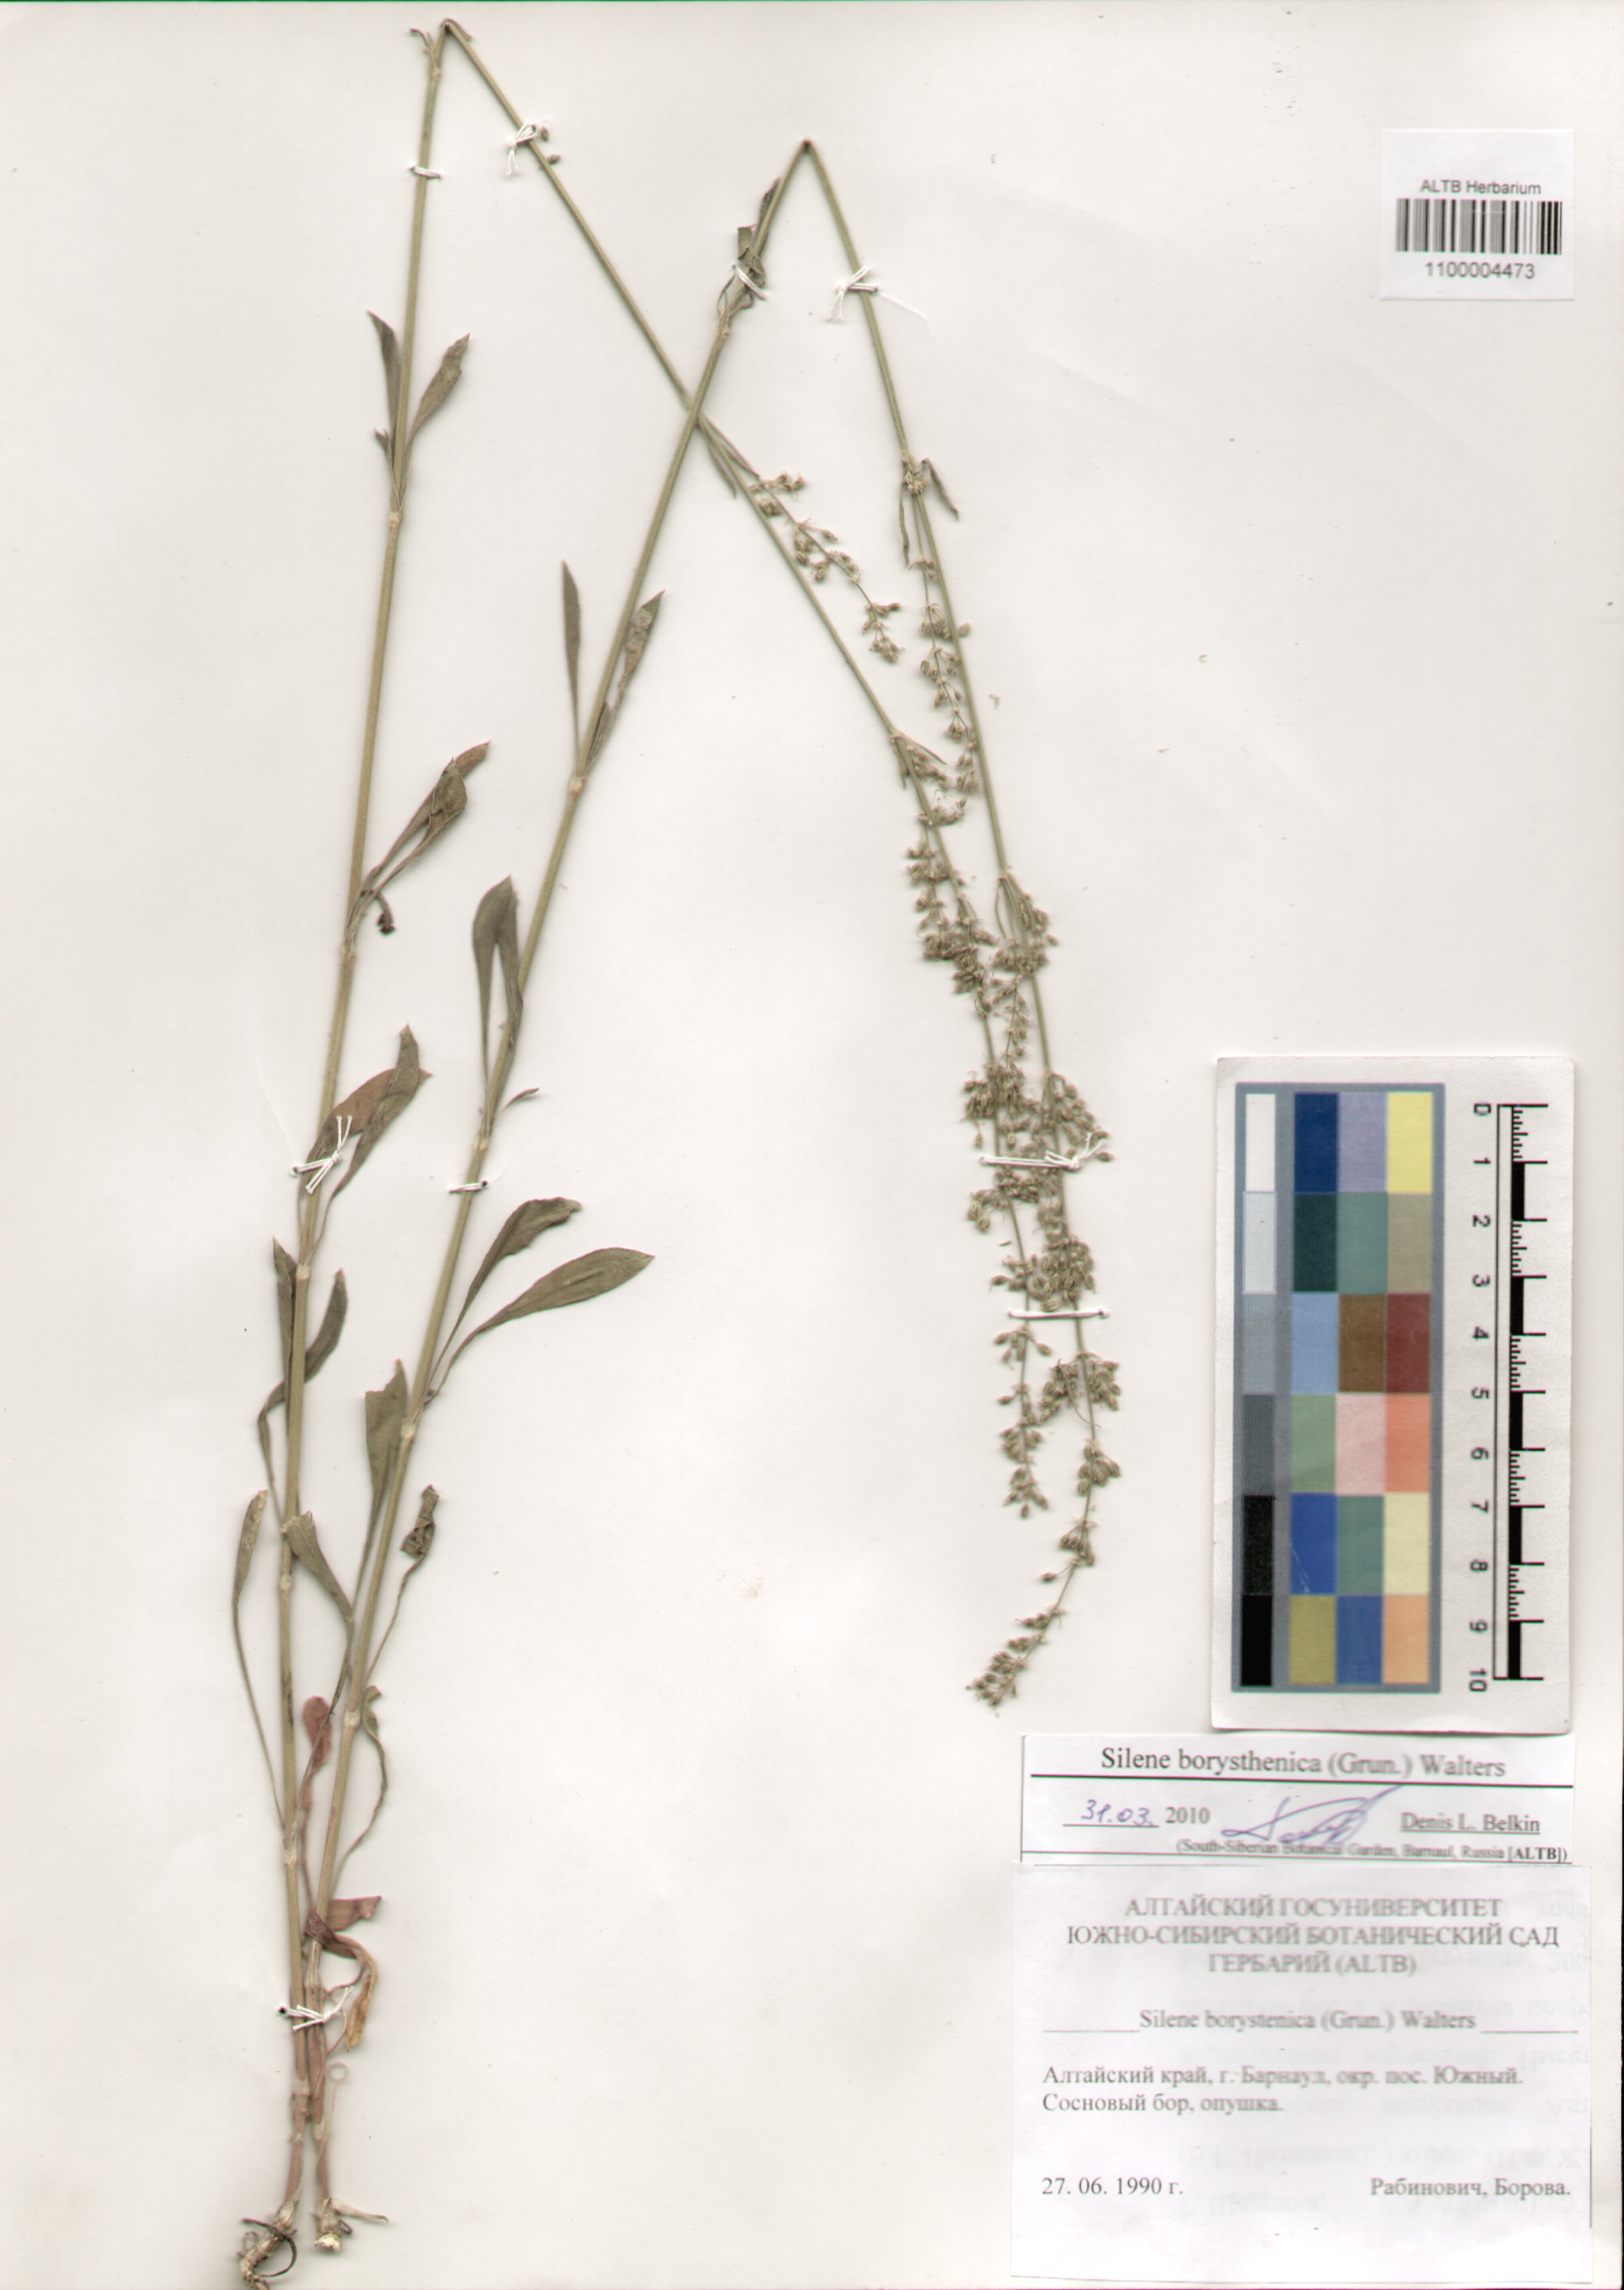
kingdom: Plantae
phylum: Tracheophyta
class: Magnoliopsida
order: Caryophyllales
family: Caryophyllaceae
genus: Silene
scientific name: Silene borysthenica
